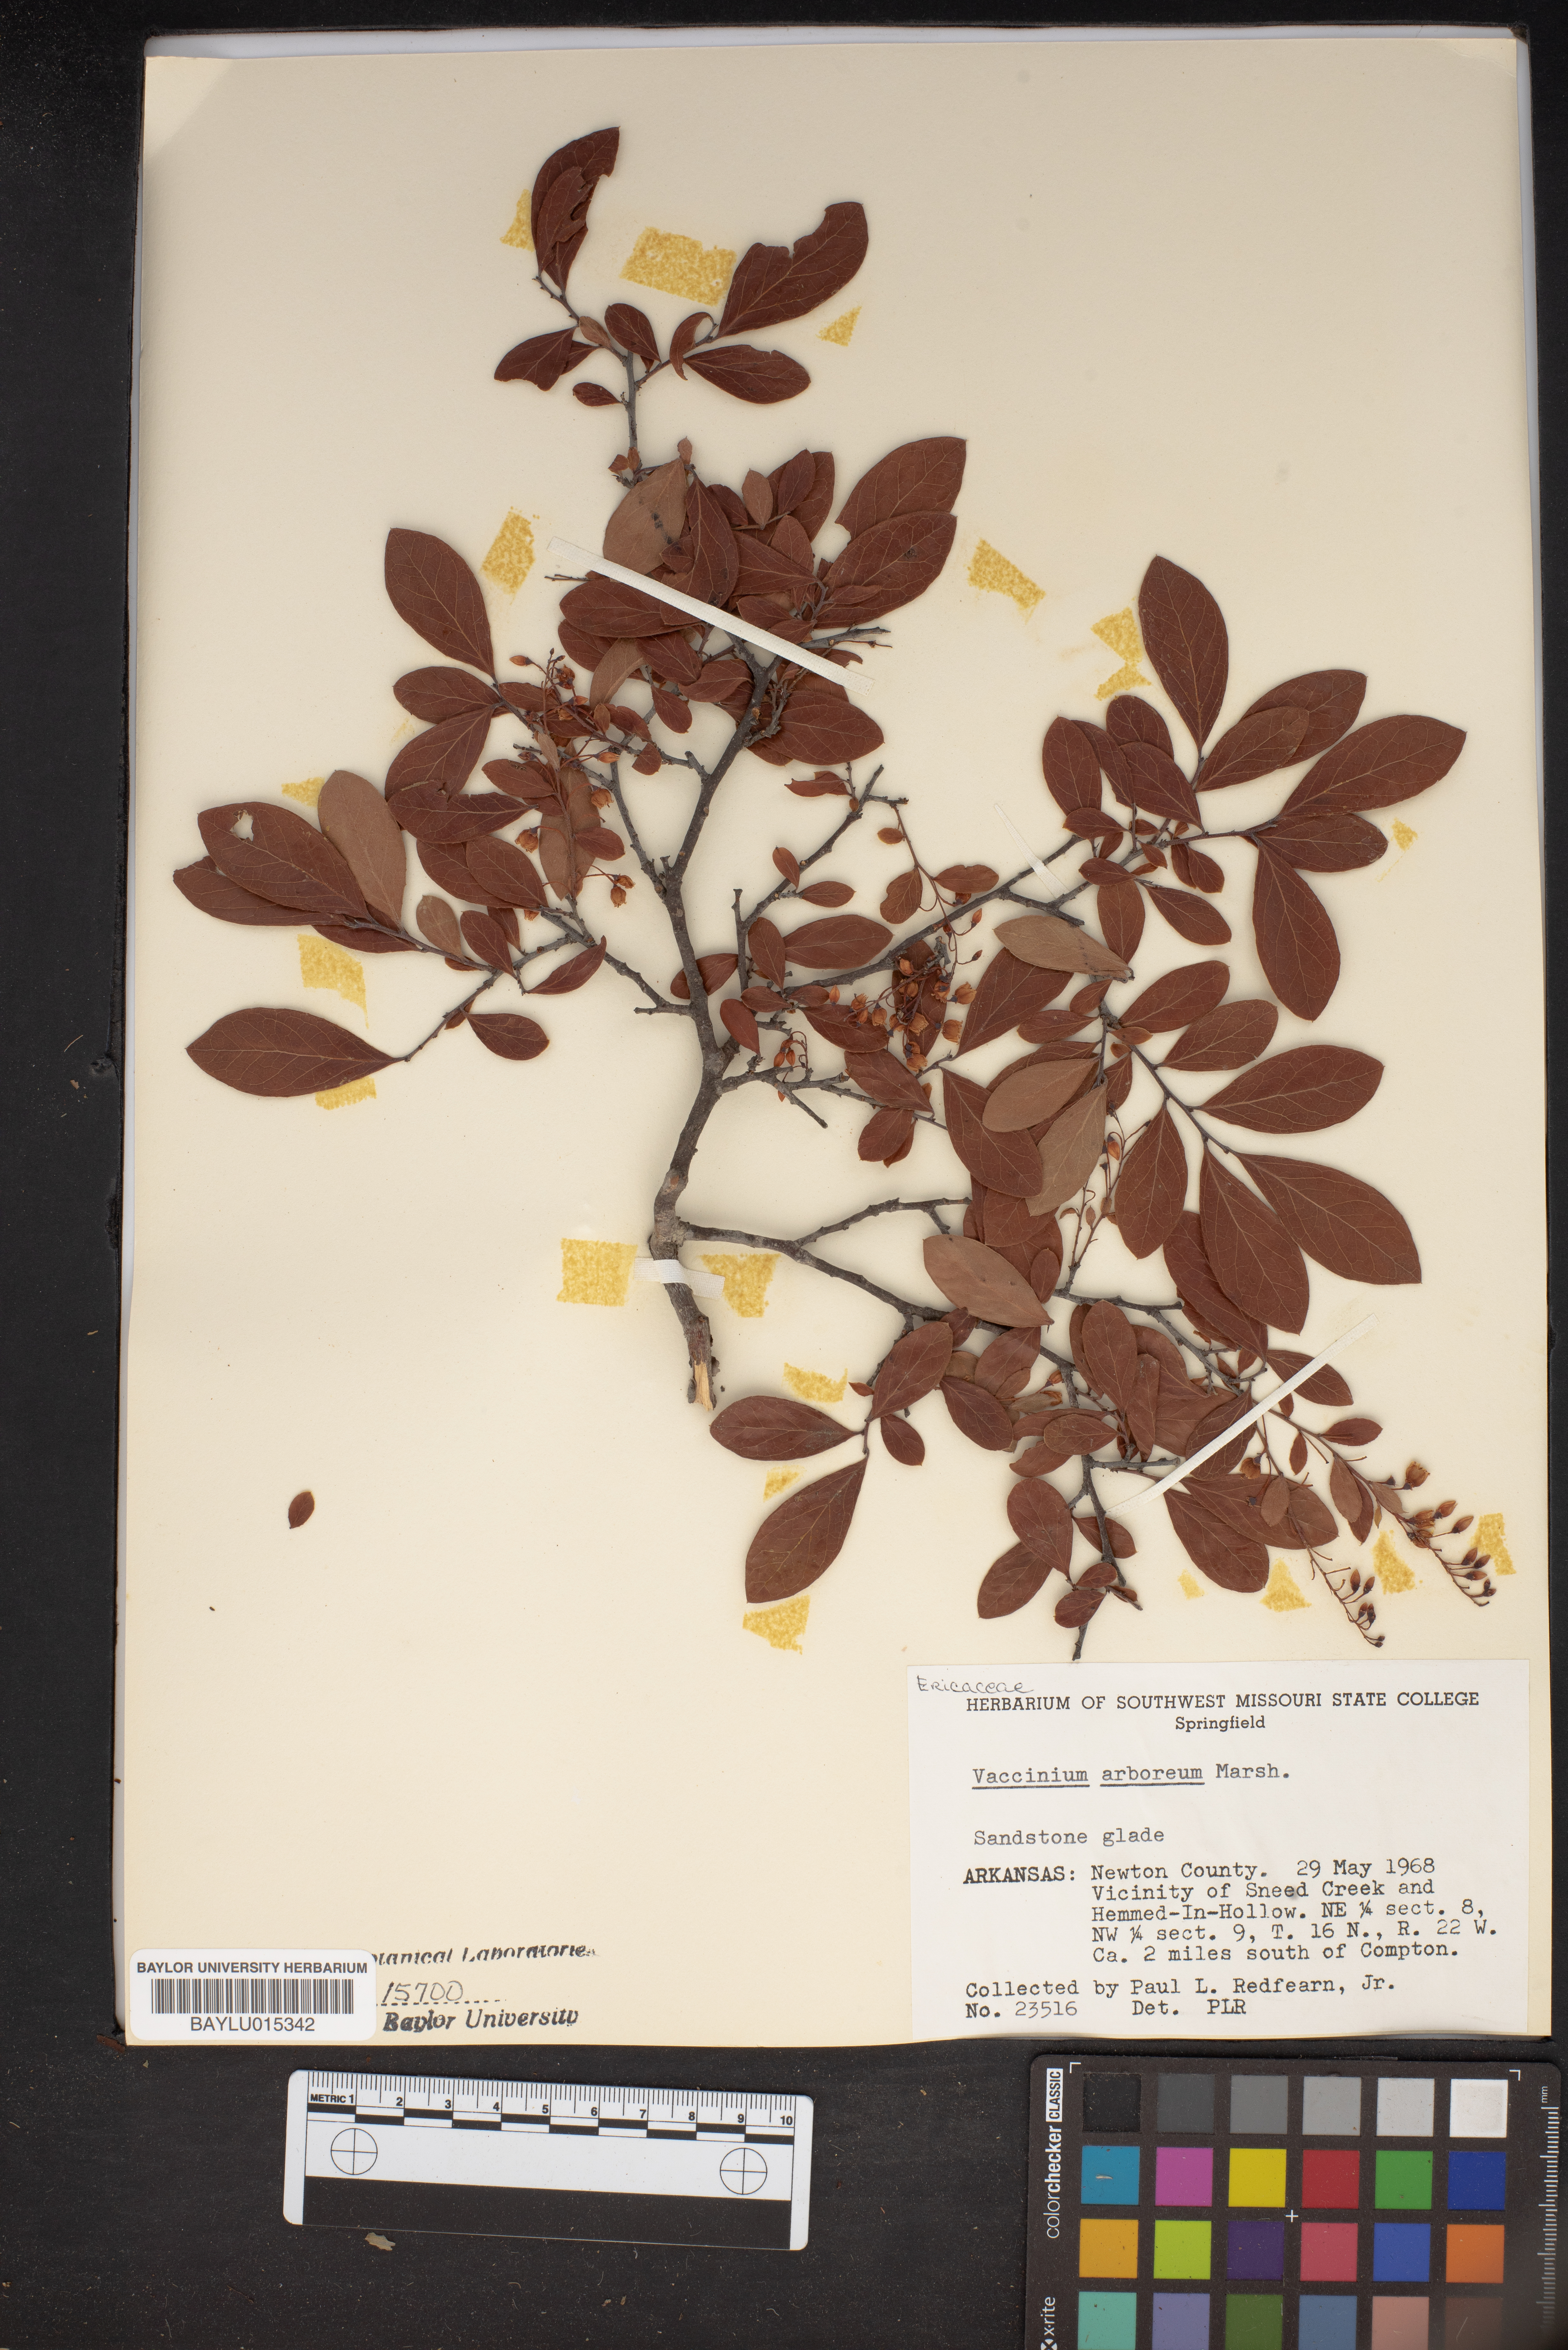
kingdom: Plantae
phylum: Tracheophyta
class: Magnoliopsida
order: Ericales
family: Ericaceae
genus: Vaccinium
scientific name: Vaccinium arboreum
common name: Farkleberry
